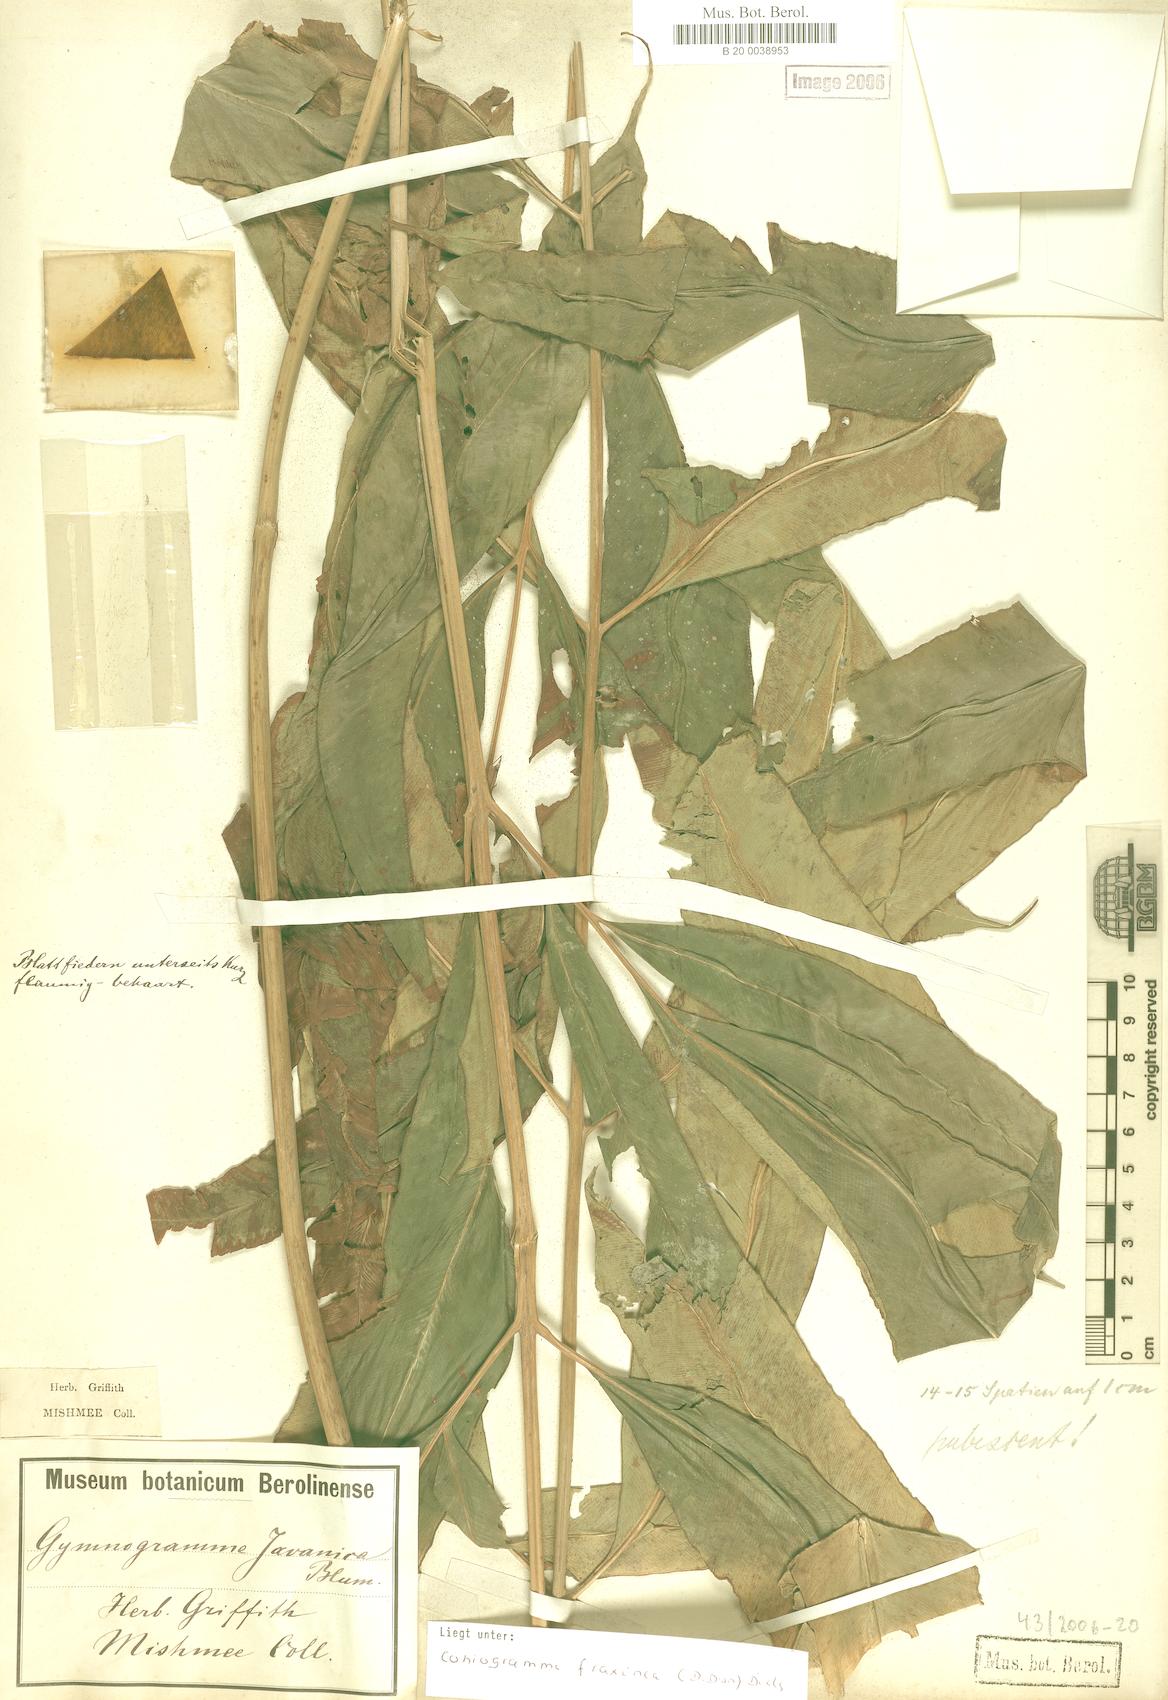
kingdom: Plantae
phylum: Tracheophyta
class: Polypodiopsida
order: Polypodiales
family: Pteridaceae
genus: Coniogramme
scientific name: Coniogramme fraxinea
